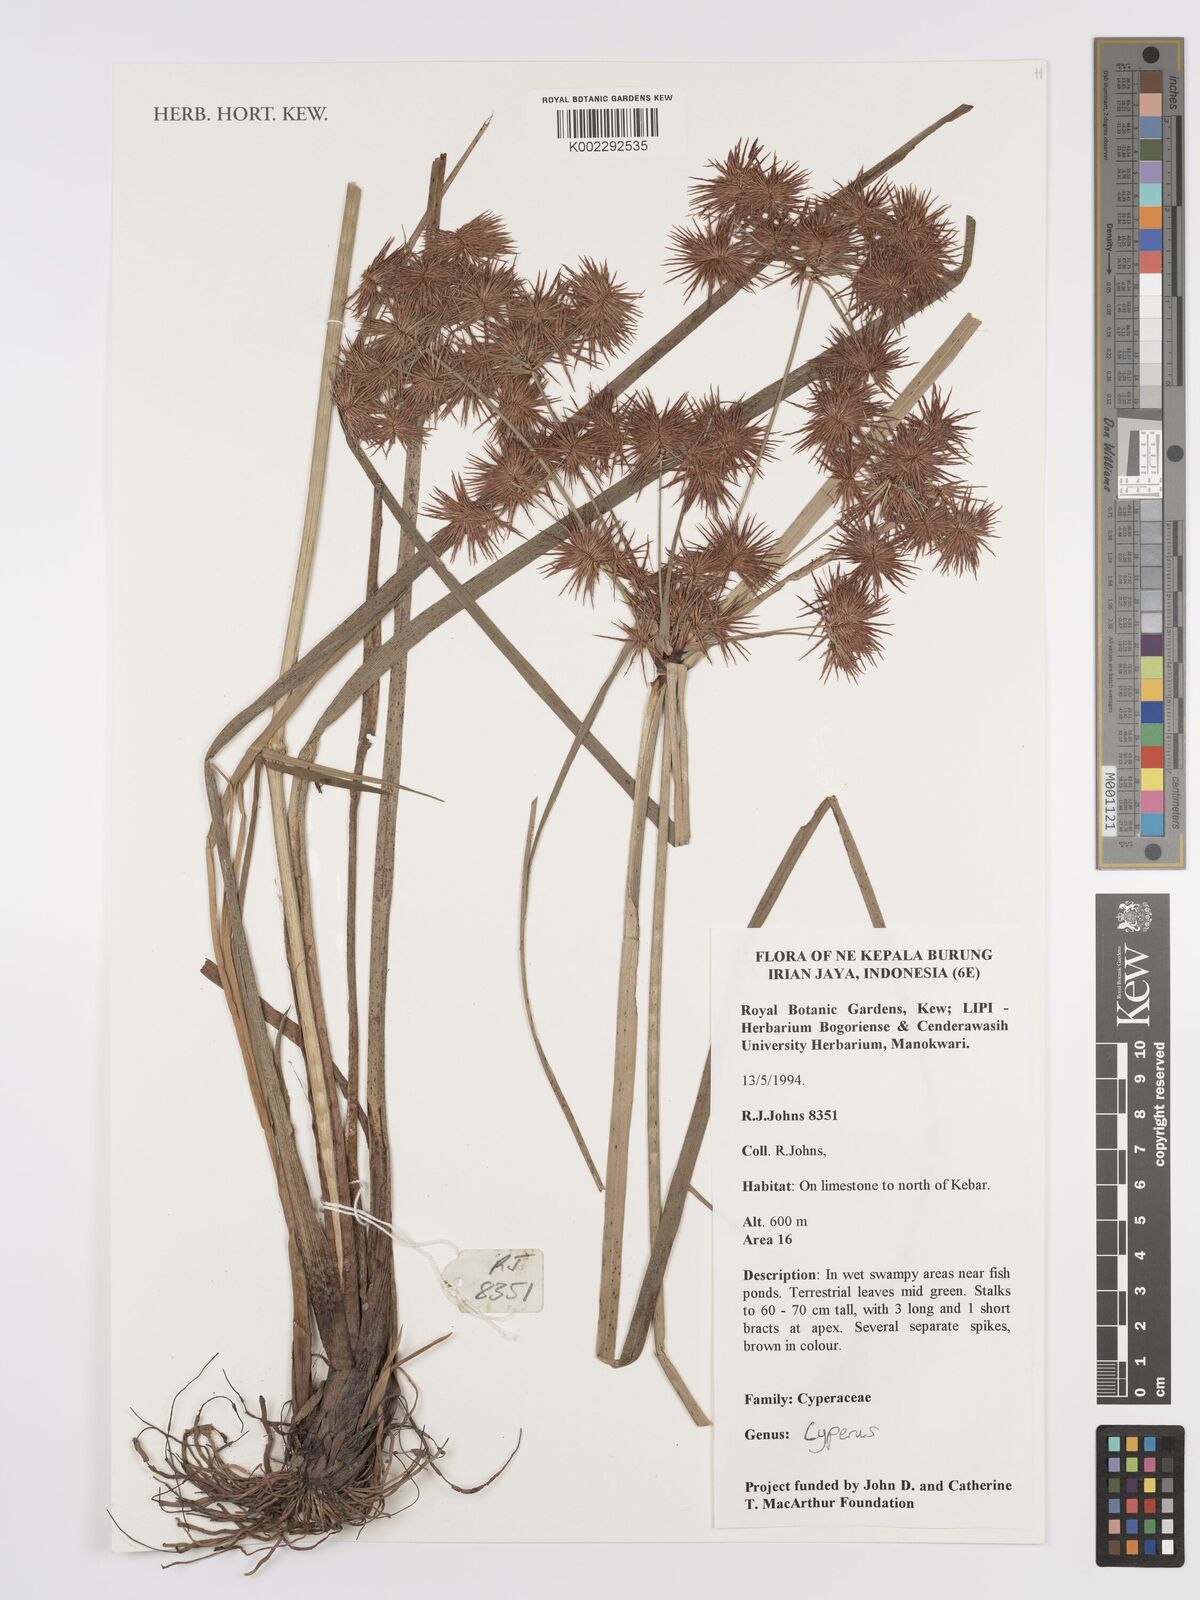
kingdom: Plantae
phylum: Tracheophyta
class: Liliopsida
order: Poales
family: Cyperaceae
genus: Cyperus
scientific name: Cyperus
